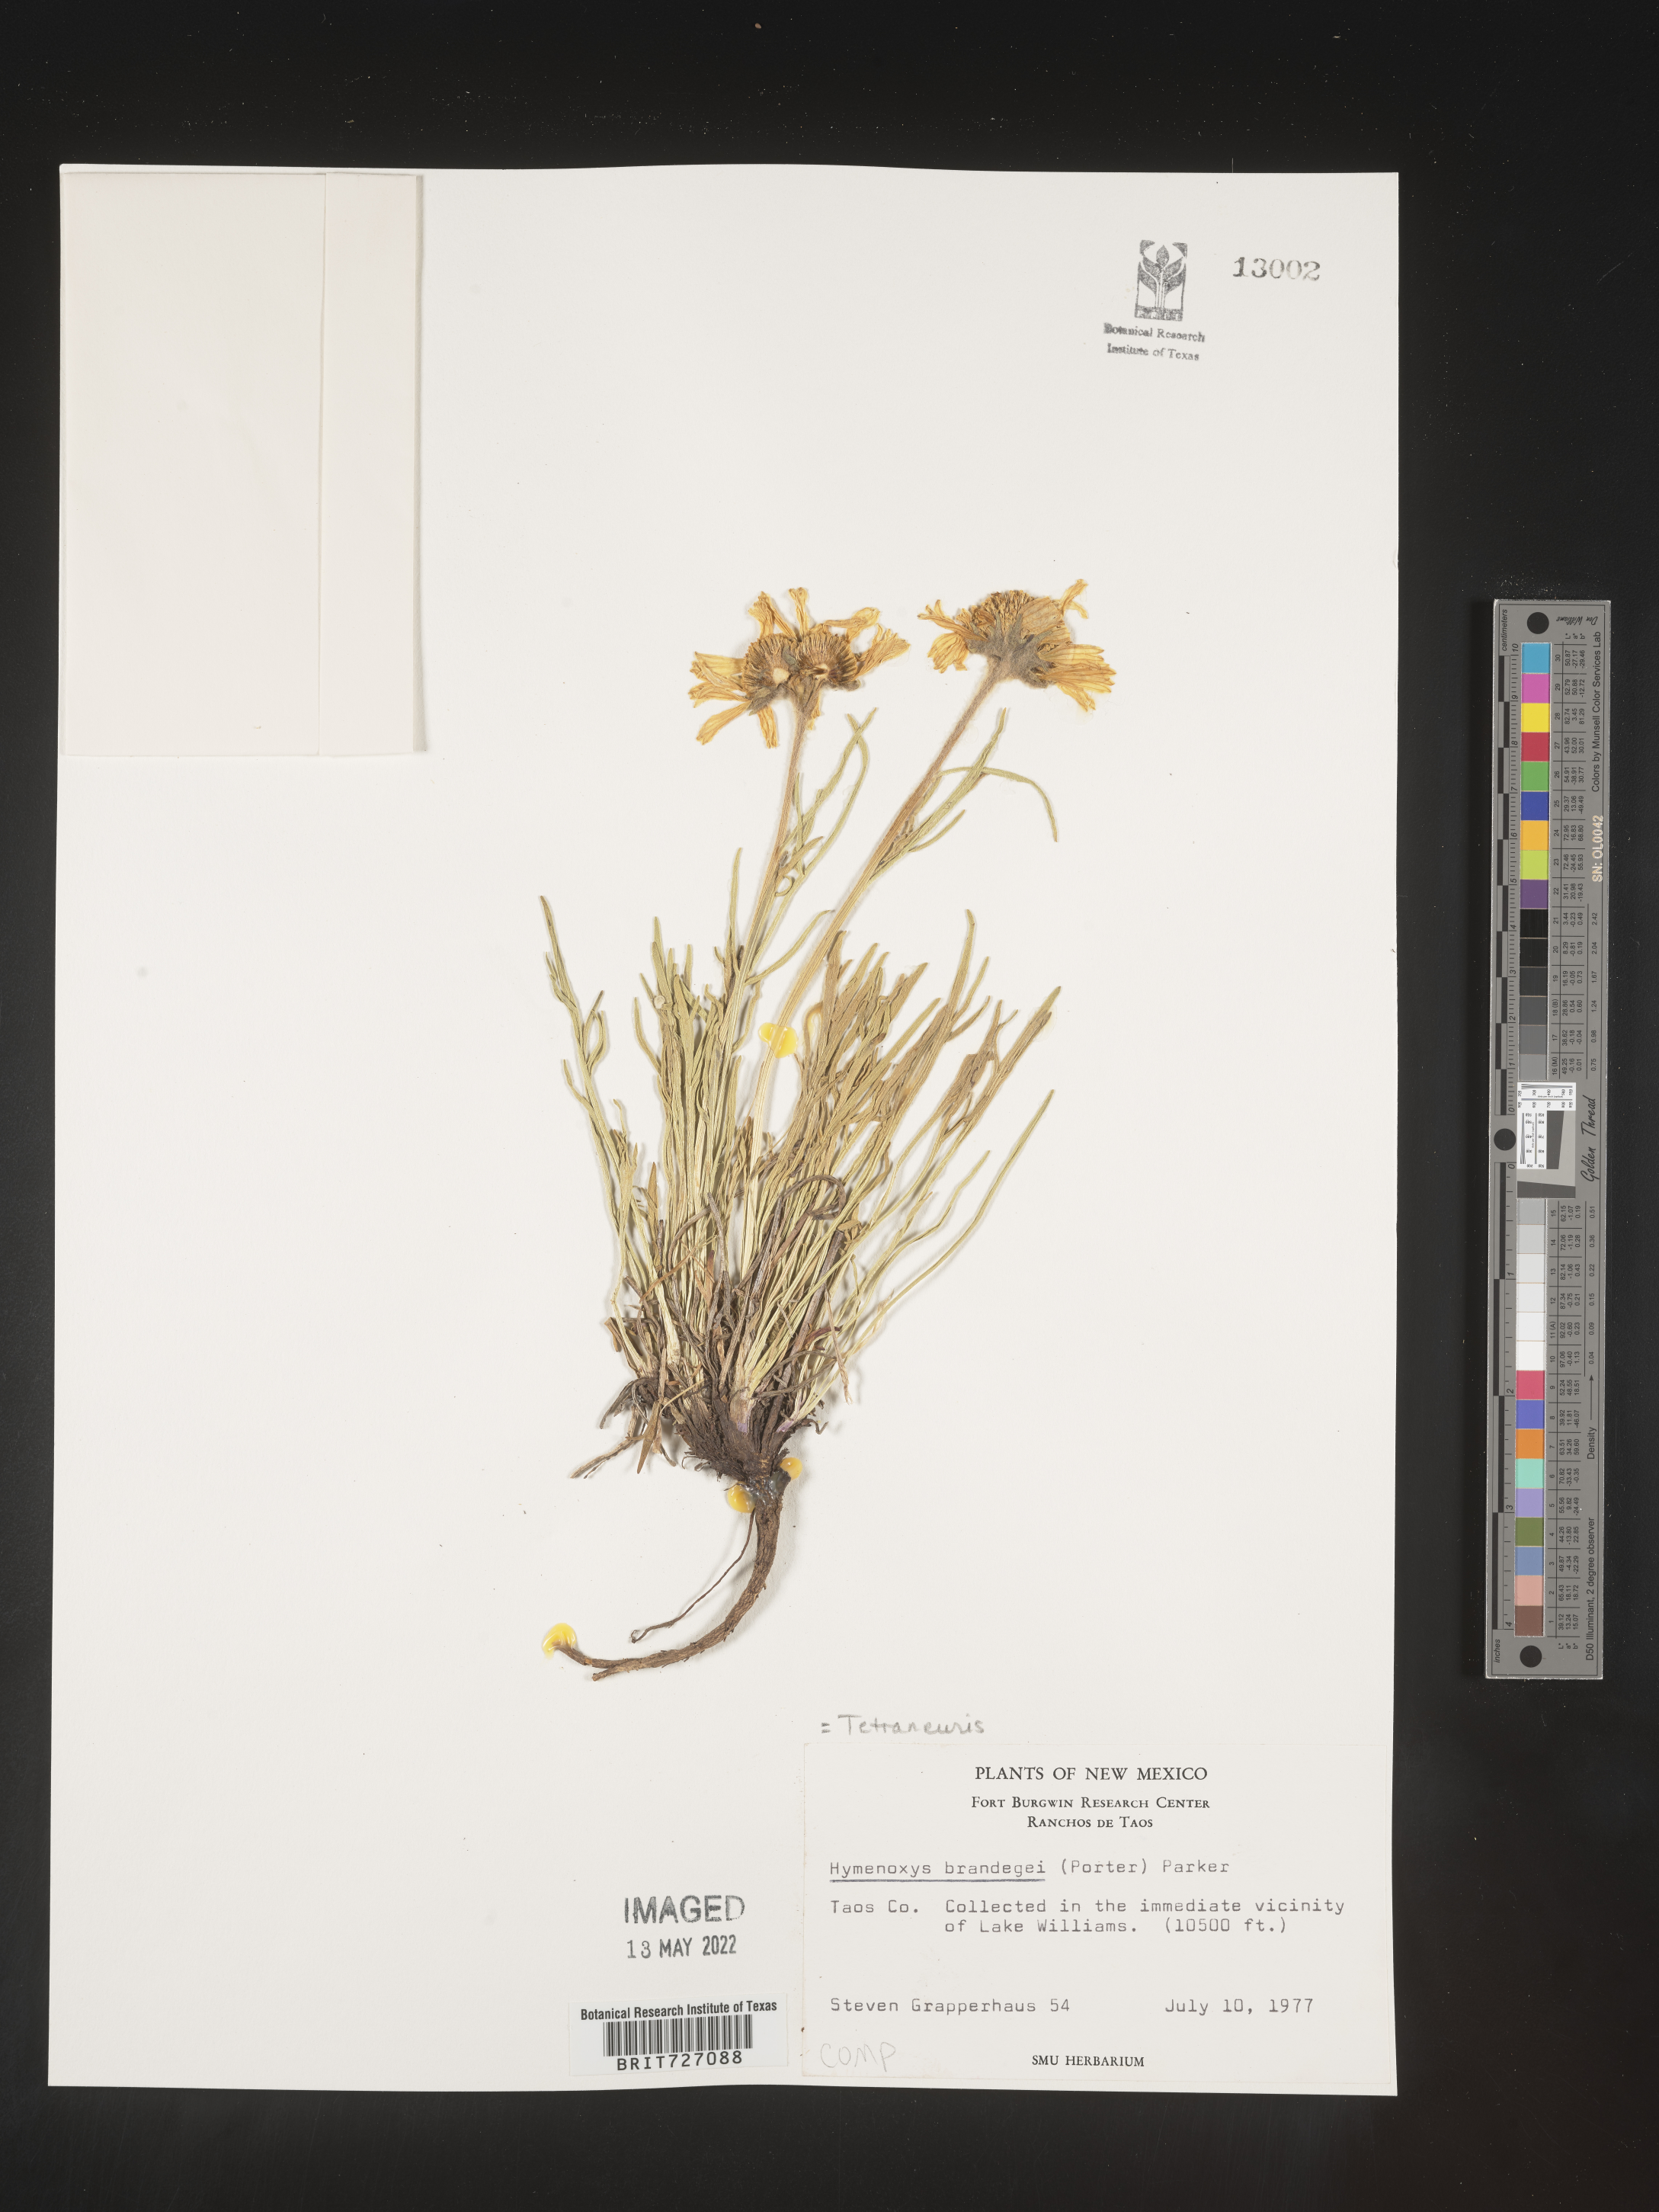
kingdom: Plantae
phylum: Tracheophyta
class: Magnoliopsida
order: Asterales
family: Asteraceae
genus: Hymenoxys
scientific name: Hymenoxys brandegeei
